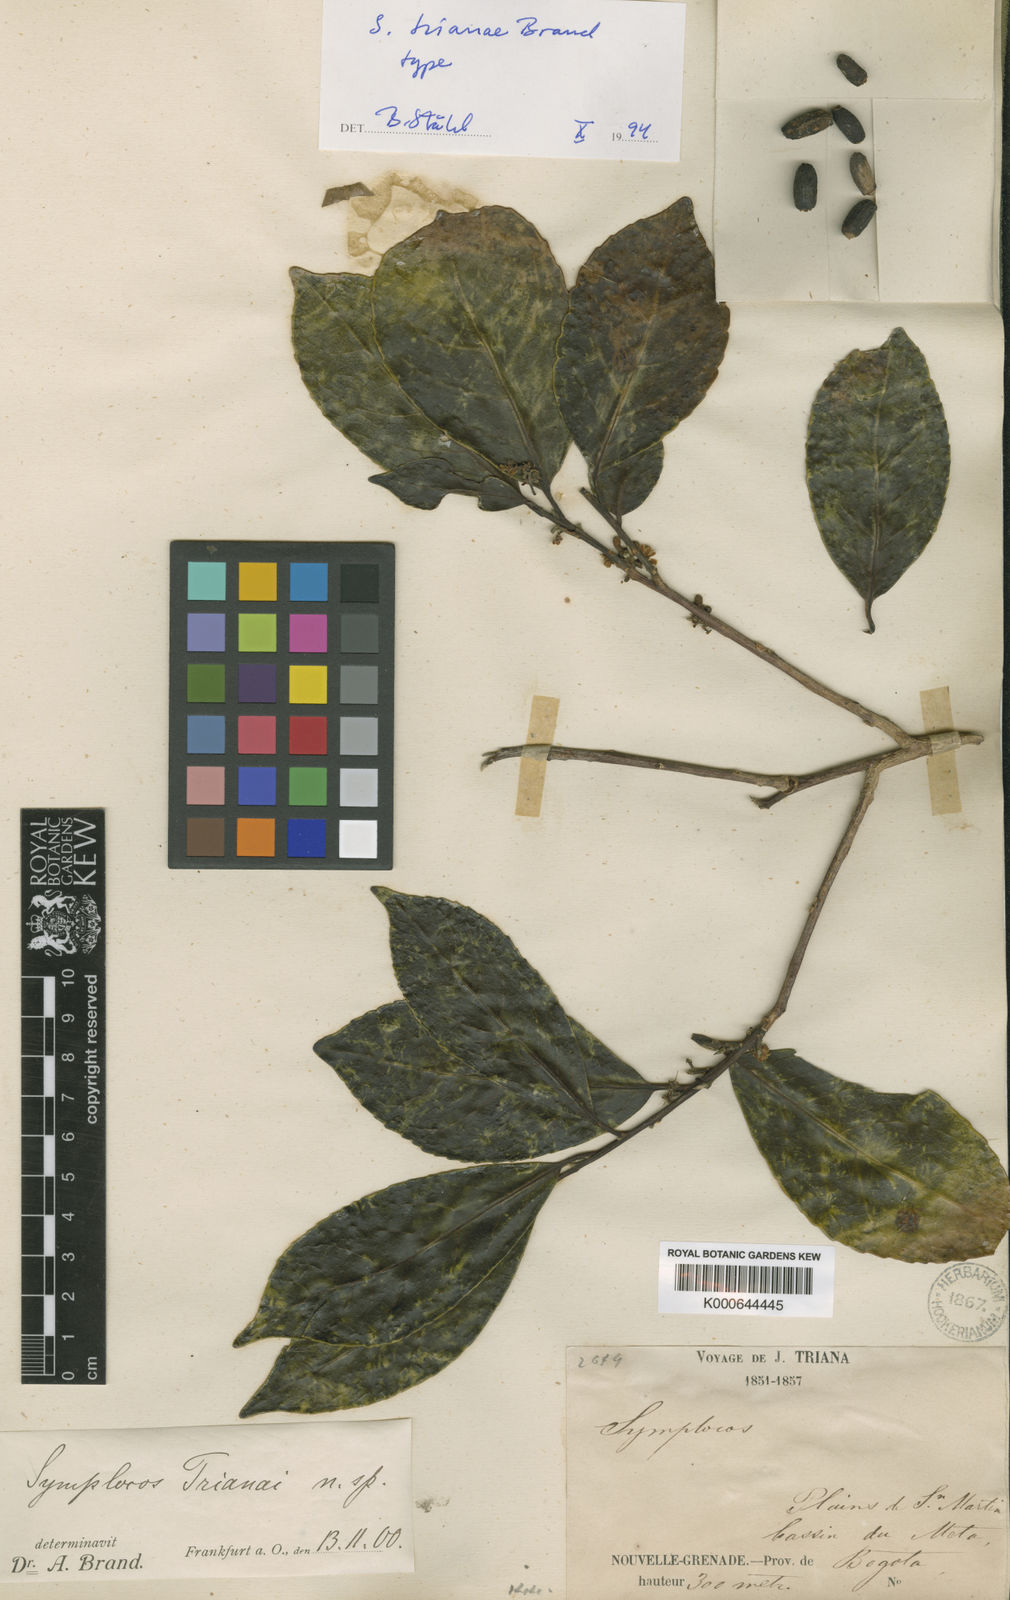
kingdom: Plantae
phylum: Tracheophyta
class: Magnoliopsida
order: Ericales
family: Symplocaceae
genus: Symplocos
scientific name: Symplocos trianae
